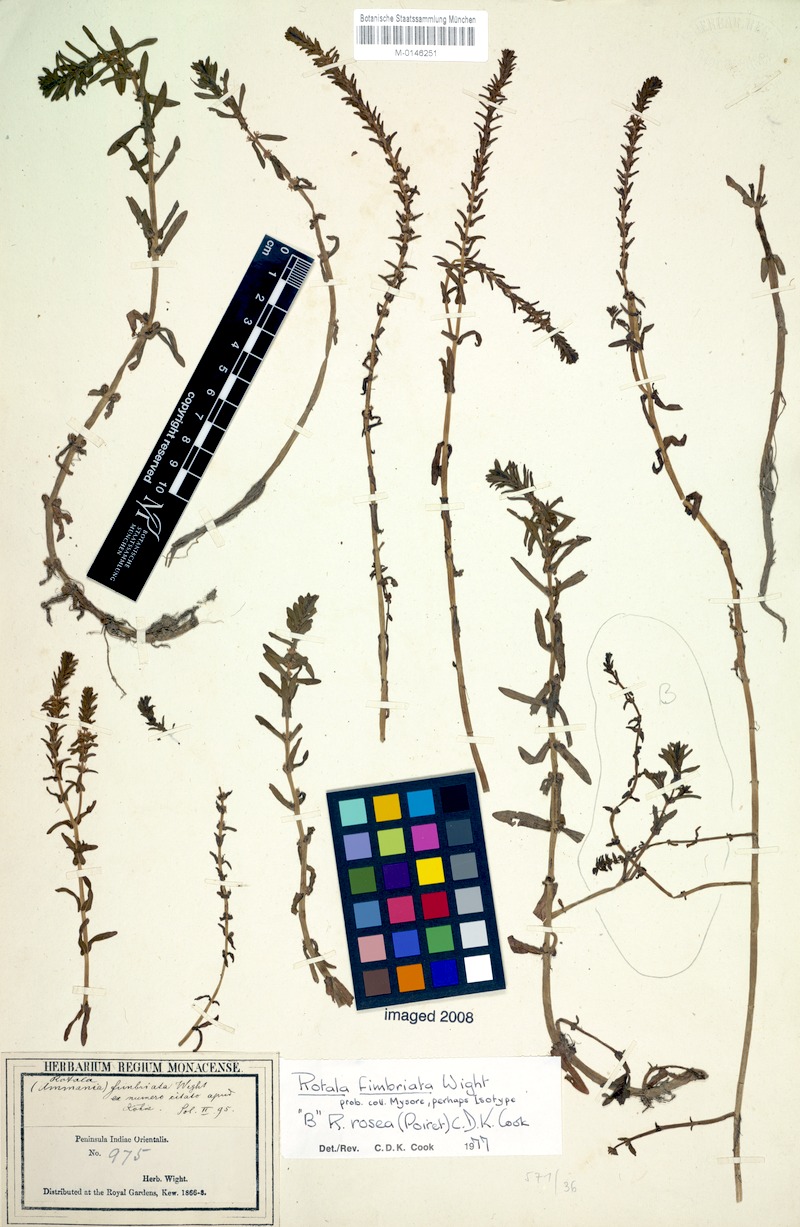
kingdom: Plantae
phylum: Tracheophyta
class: Magnoliopsida
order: Myrtales
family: Lythraceae
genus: Rotala
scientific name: Rotala rosea
